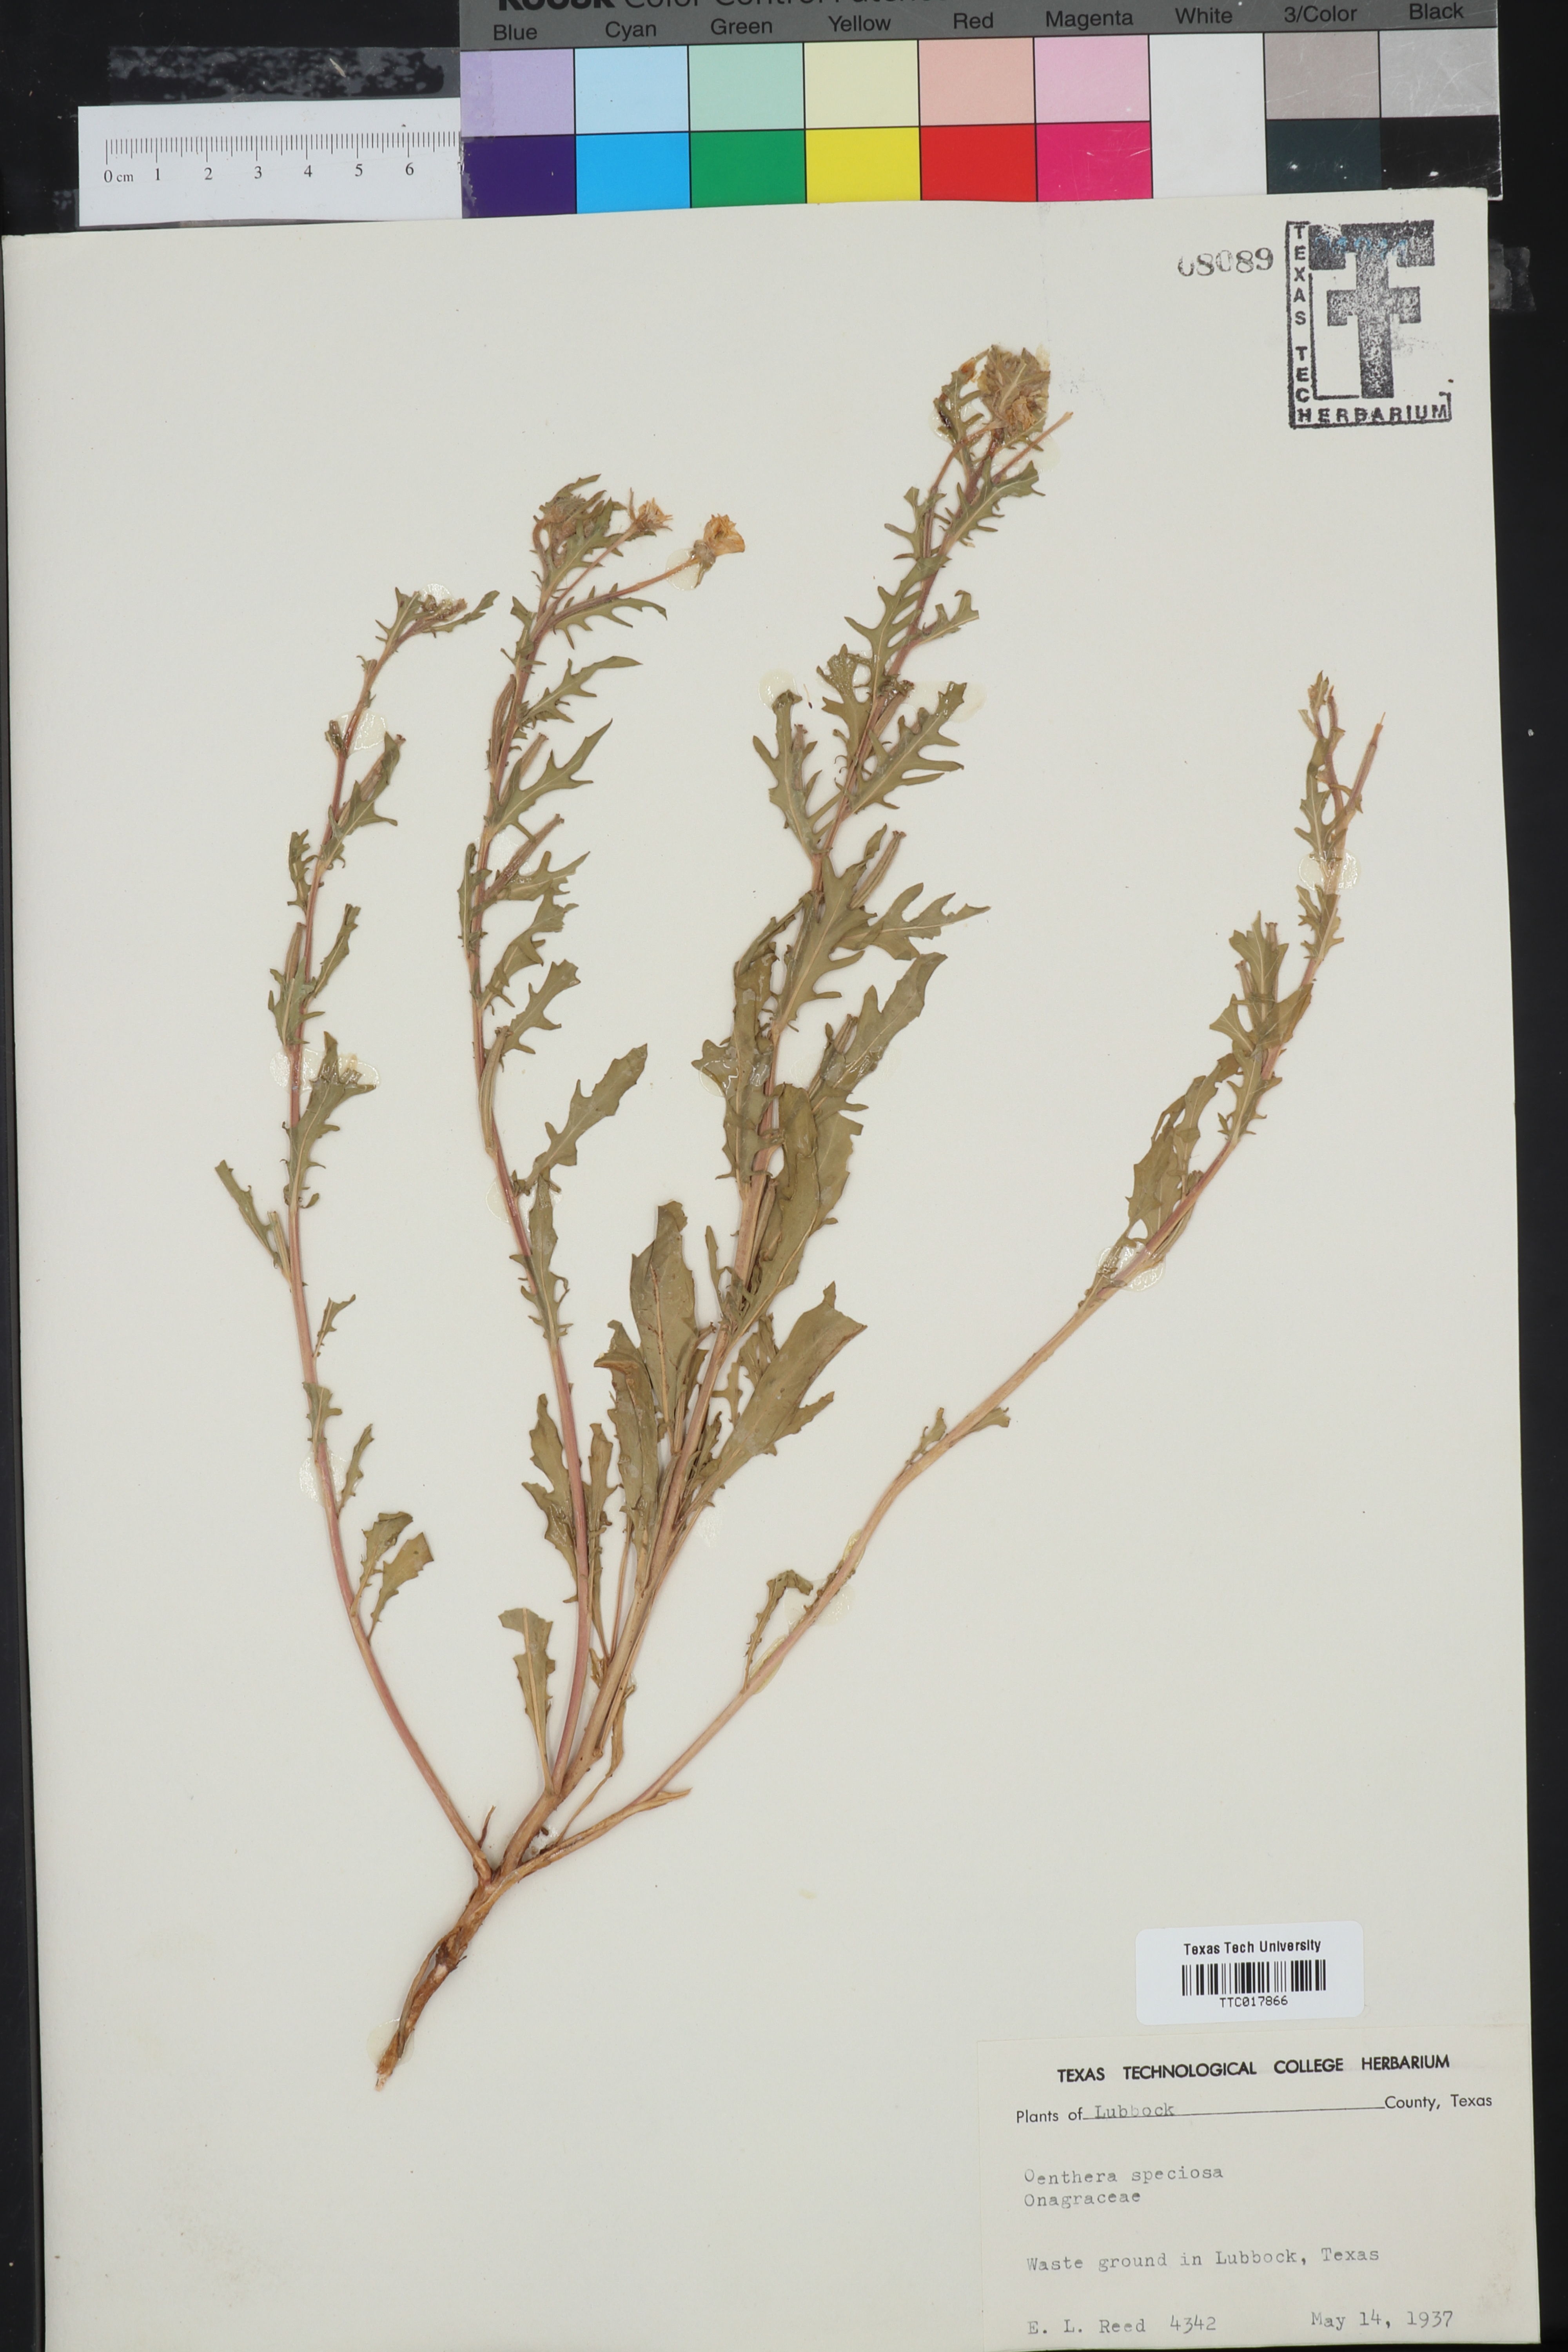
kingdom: Plantae
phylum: Tracheophyta
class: Magnoliopsida
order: Myrtales
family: Onagraceae
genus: Oenothera
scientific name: Oenothera speciosa
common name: White evening-primrose
